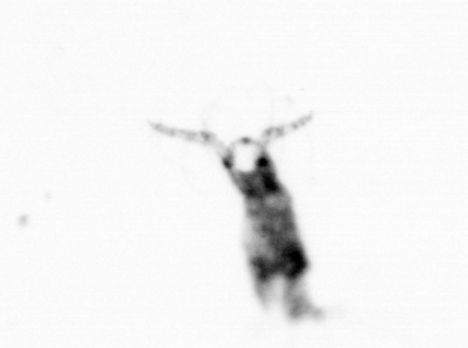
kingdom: Animalia
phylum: Arthropoda
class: Copepoda
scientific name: Copepoda
